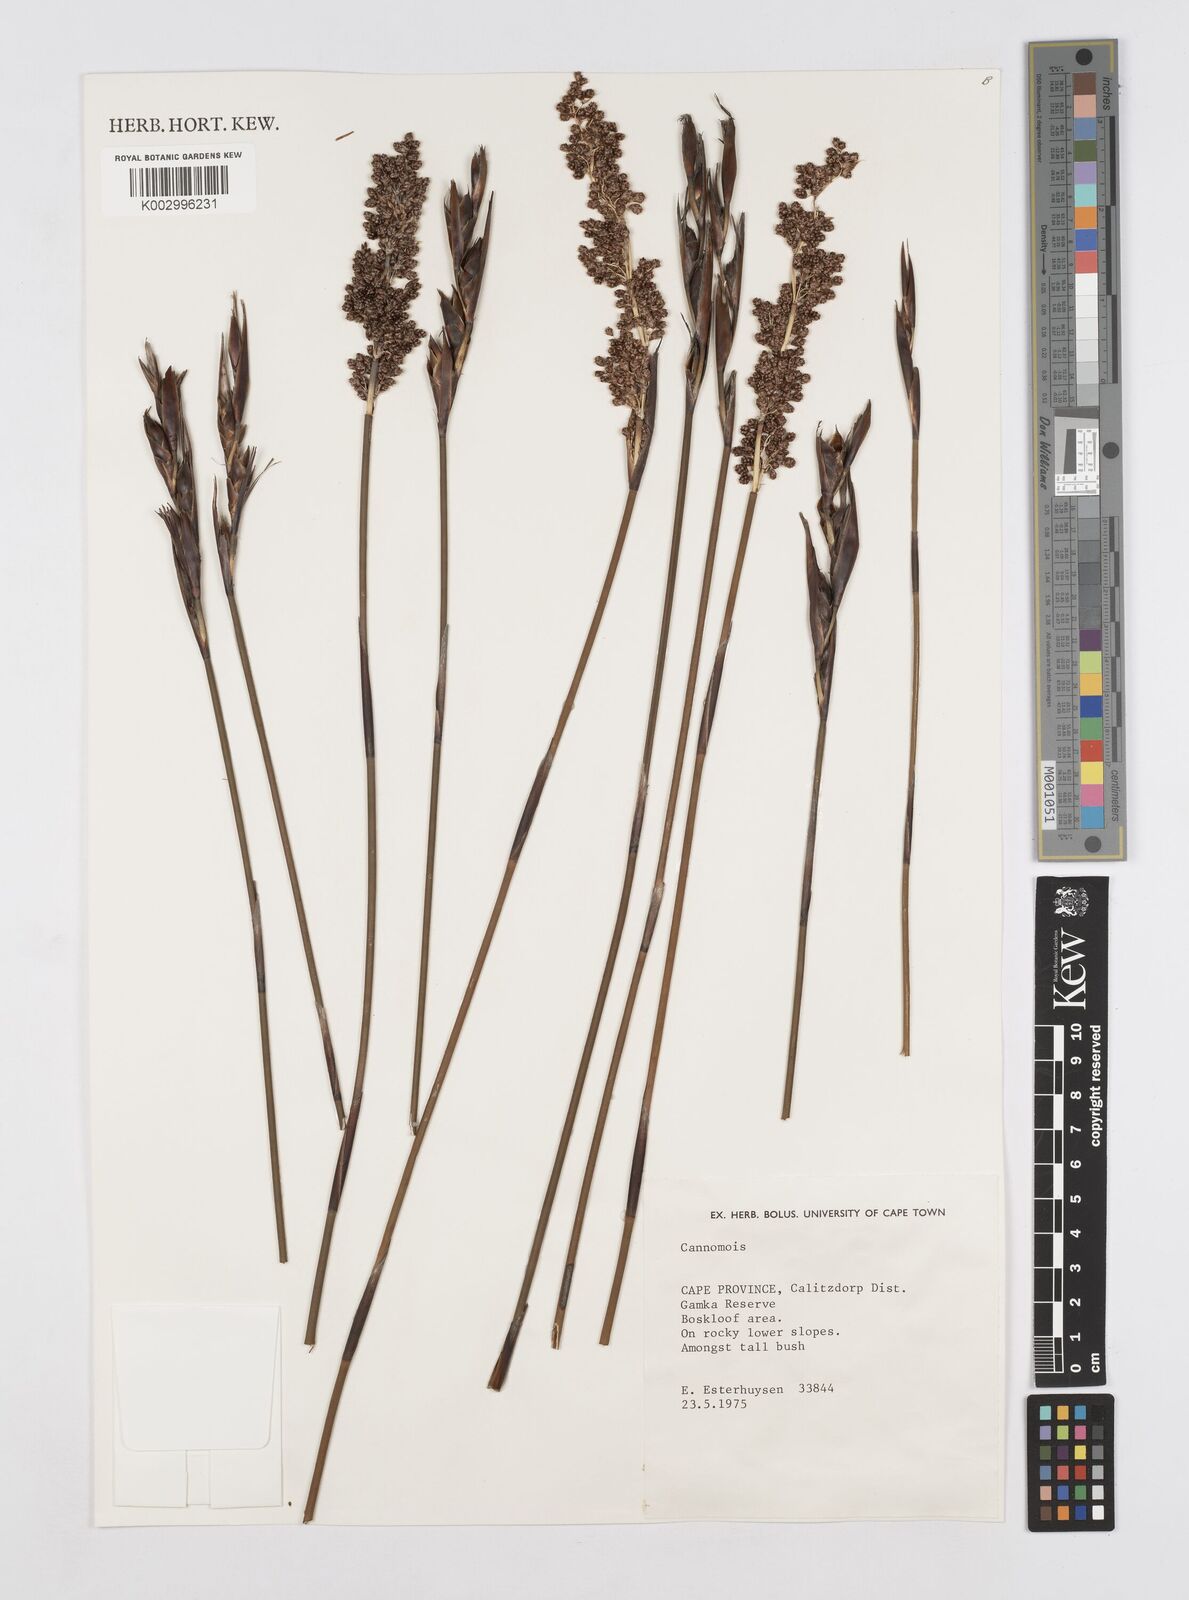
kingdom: Plantae
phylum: Tracheophyta
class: Liliopsida
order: Poales
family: Restionaceae
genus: Cannomois
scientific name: Cannomois
